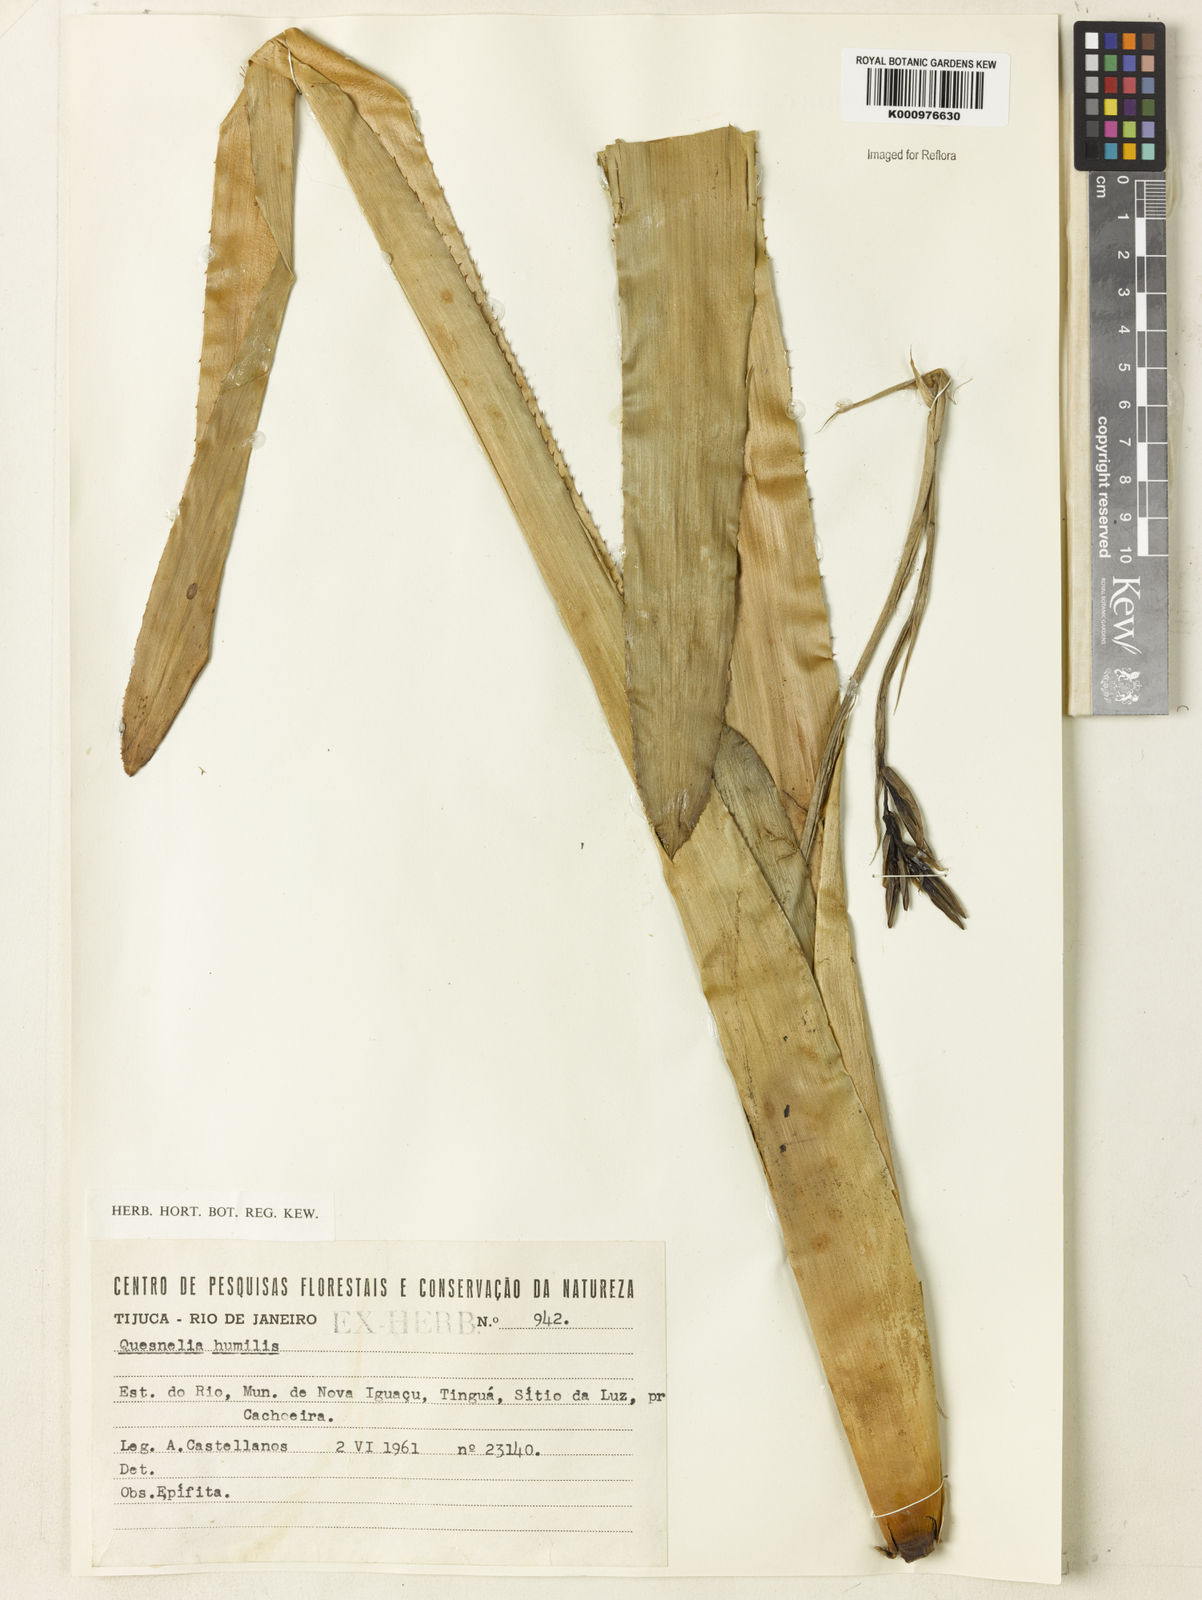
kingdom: Plantae
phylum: Tracheophyta
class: Liliopsida
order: Poales
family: Bromeliaceae
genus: Quesnelia
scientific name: Quesnelia humilis
